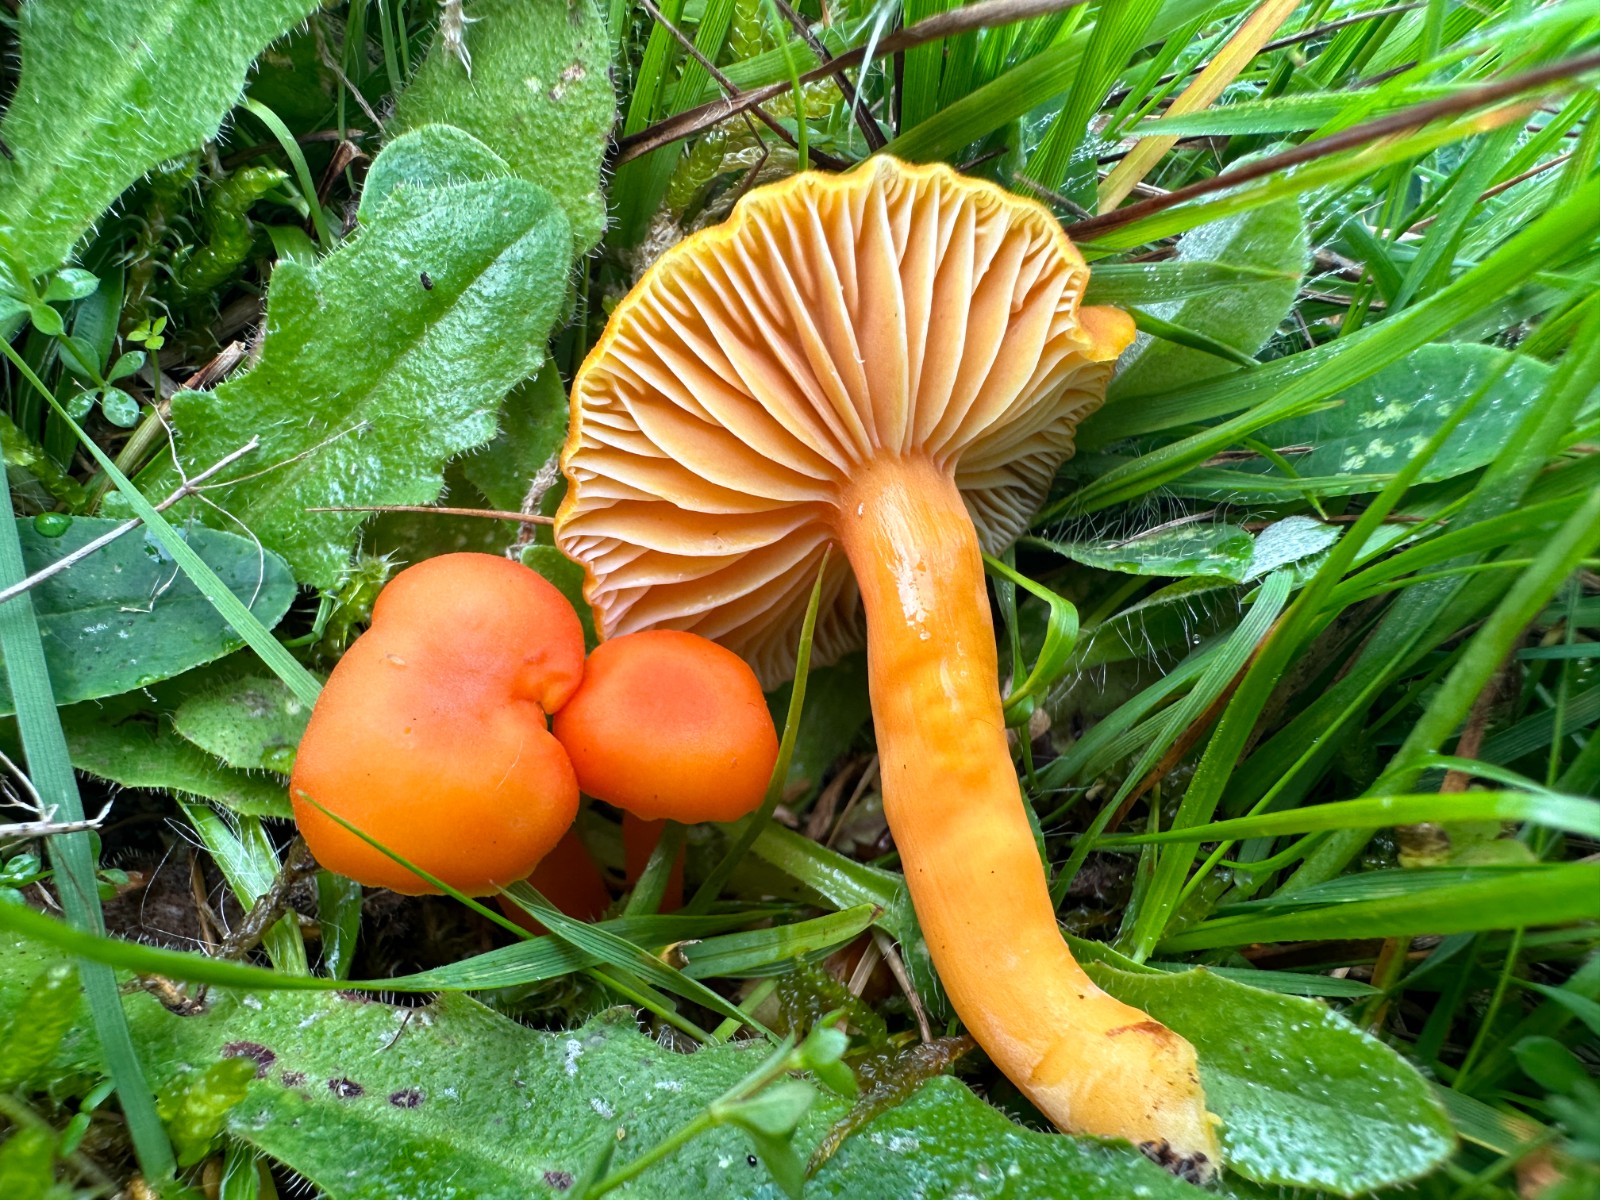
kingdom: Fungi
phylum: Basidiomycota
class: Agaricomycetes
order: Agaricales
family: Hygrophoraceae
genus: Hygrocybe
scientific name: Hygrocybe reidii
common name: honning-vokshat
